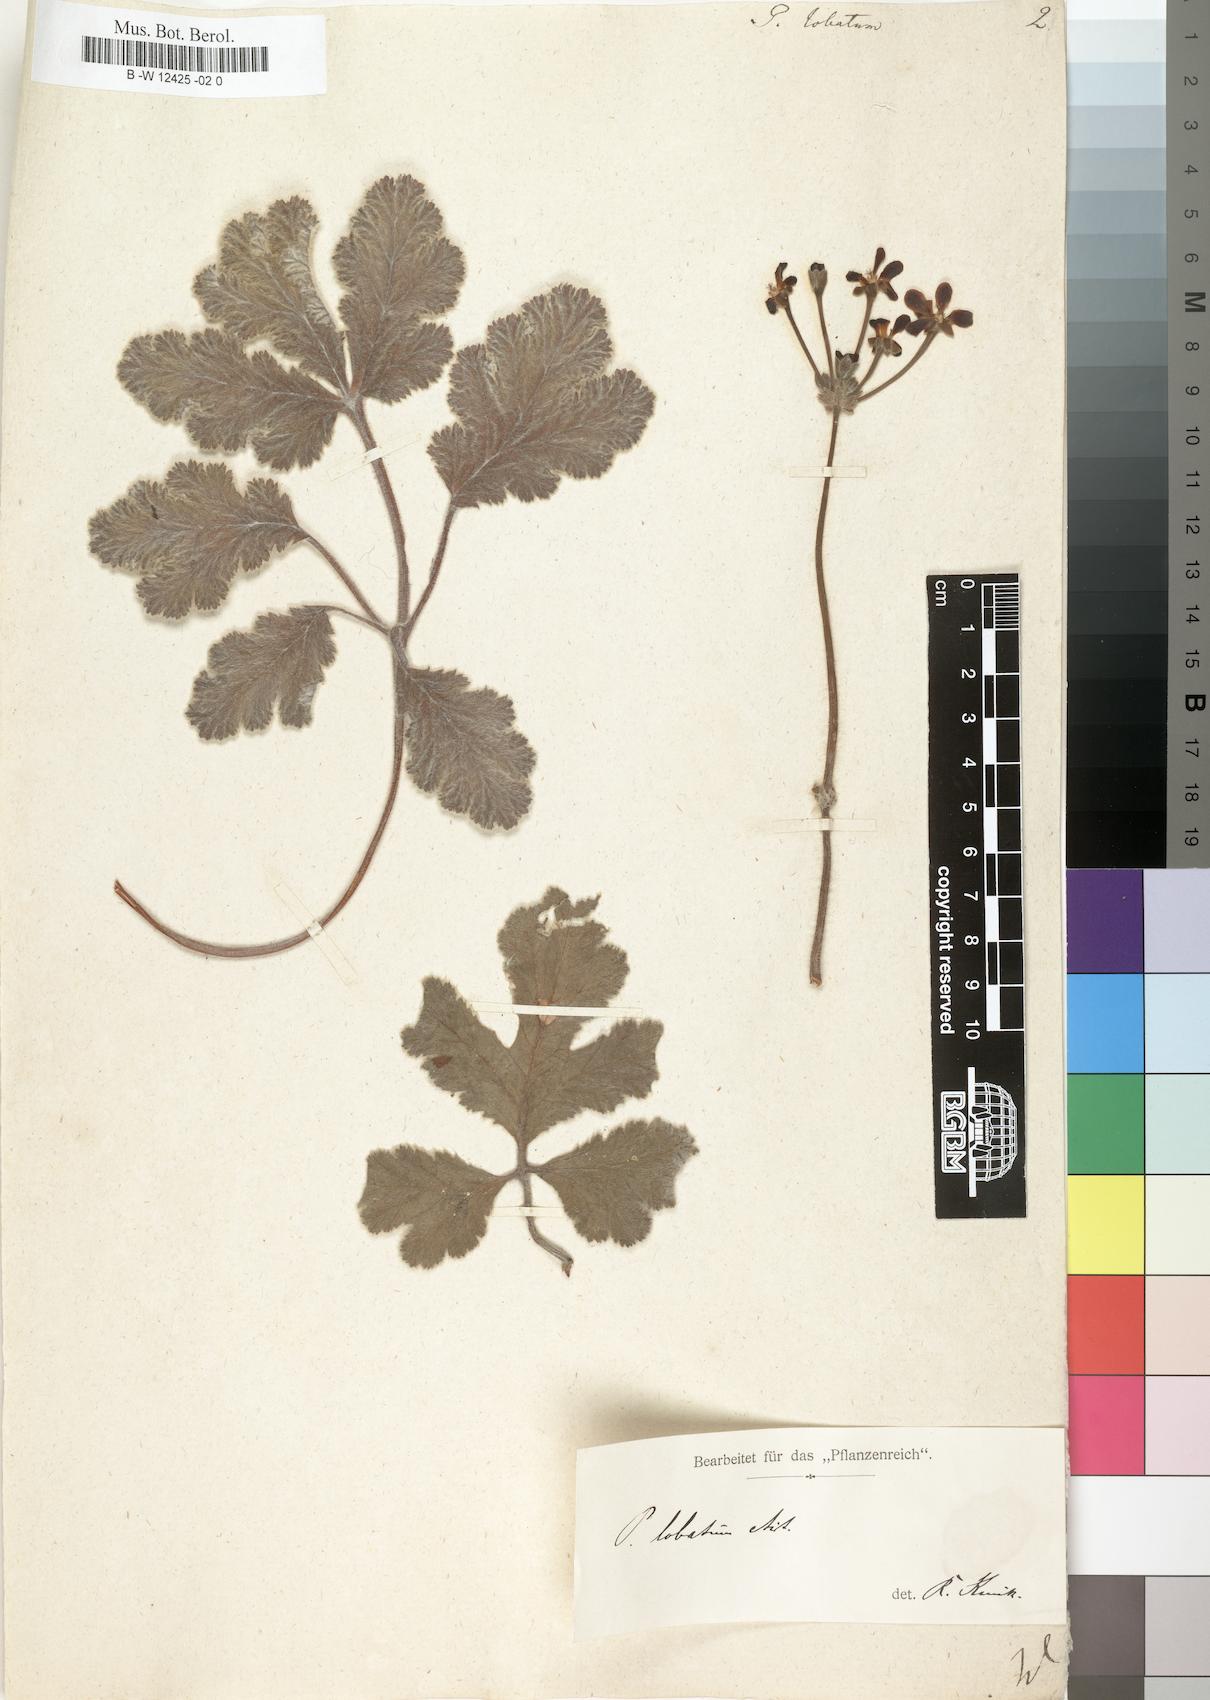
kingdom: Plantae
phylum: Tracheophyta
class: Magnoliopsida
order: Geraniales
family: Geraniaceae
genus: Pelargonium
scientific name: Pelargonium lobatum
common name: Vine-leaf pelargonium
